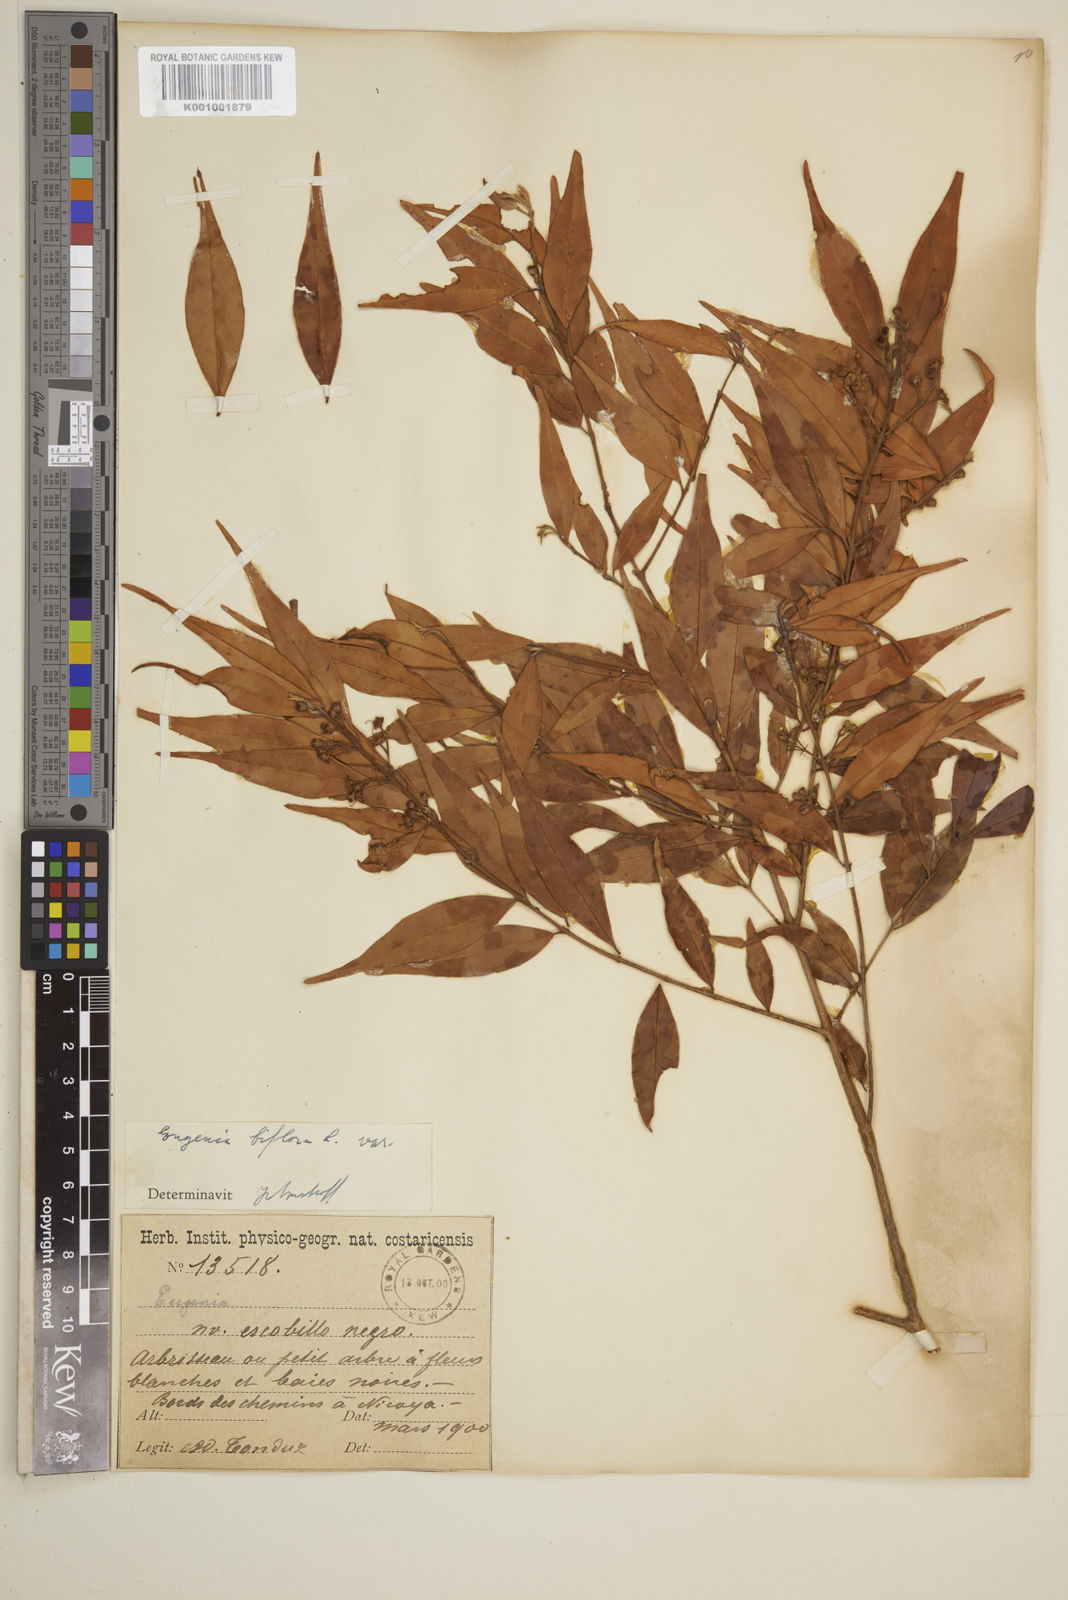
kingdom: Plantae
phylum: Tracheophyta
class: Magnoliopsida
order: Myrtales
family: Myrtaceae
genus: Eugenia
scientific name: Eugenia biflora
